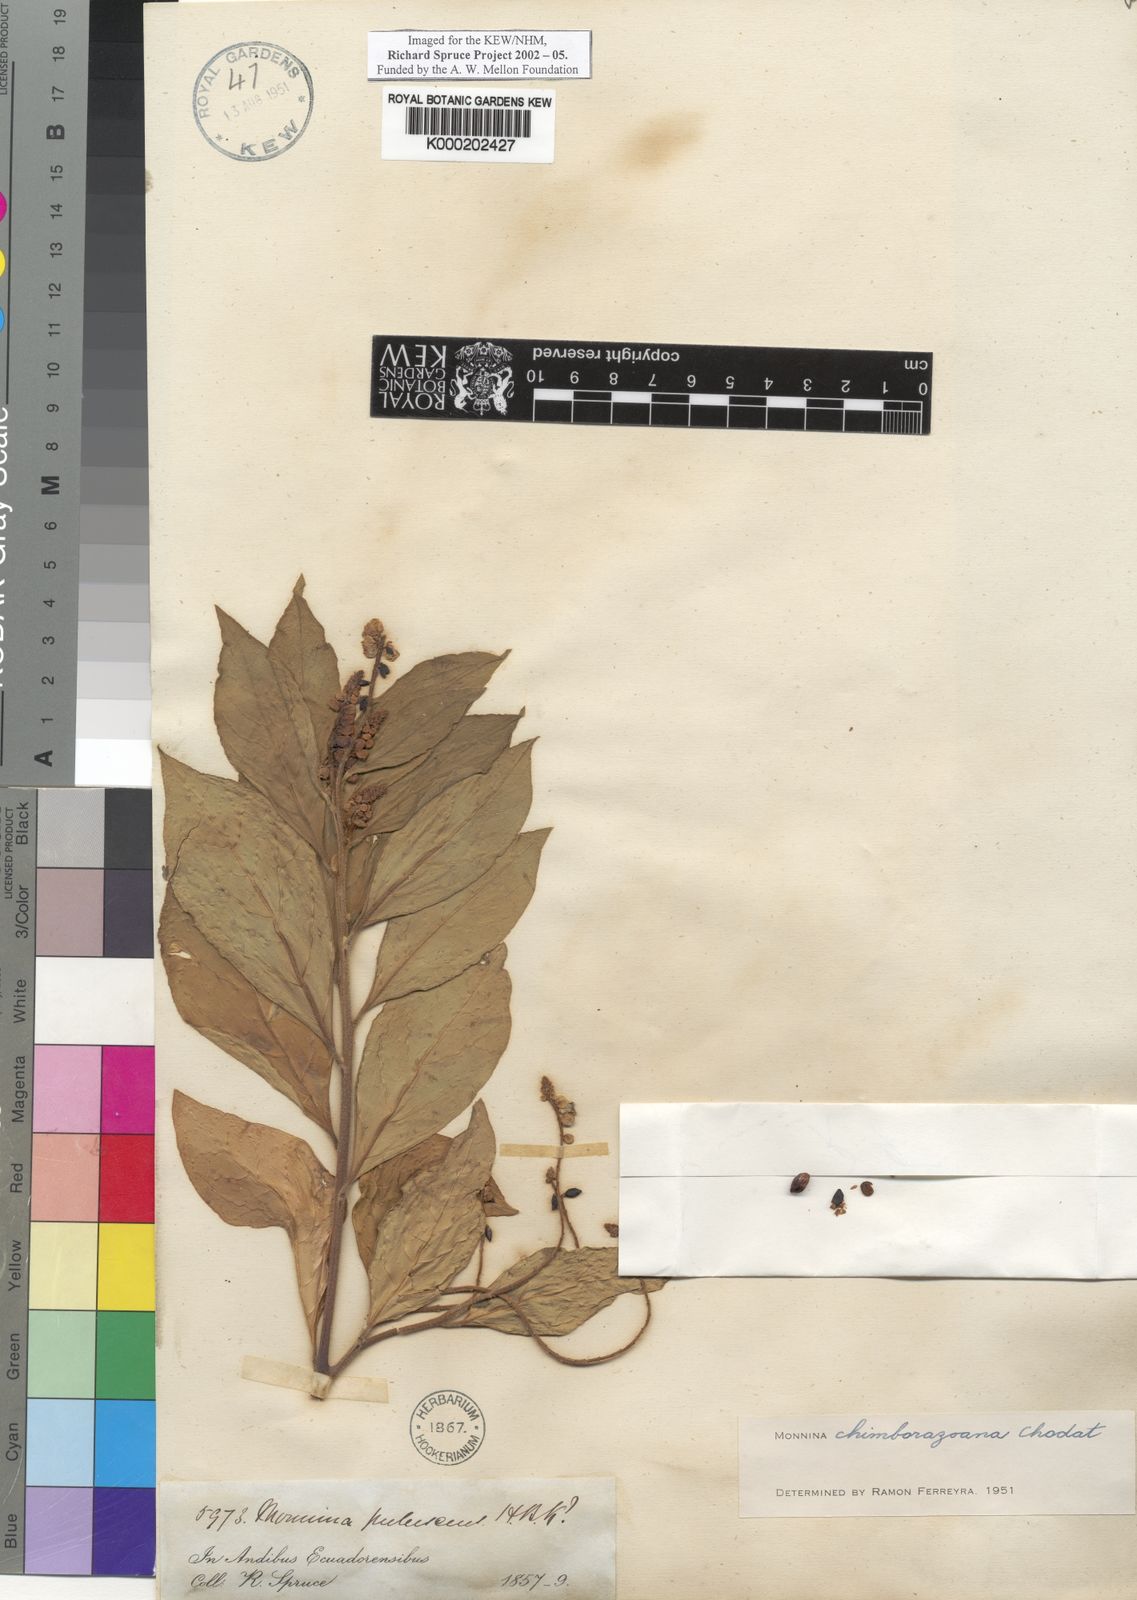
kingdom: Plantae
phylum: Tracheophyta
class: Magnoliopsida
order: Fabales
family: Polygalaceae
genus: Monnina
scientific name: Monnina chimborazeana
